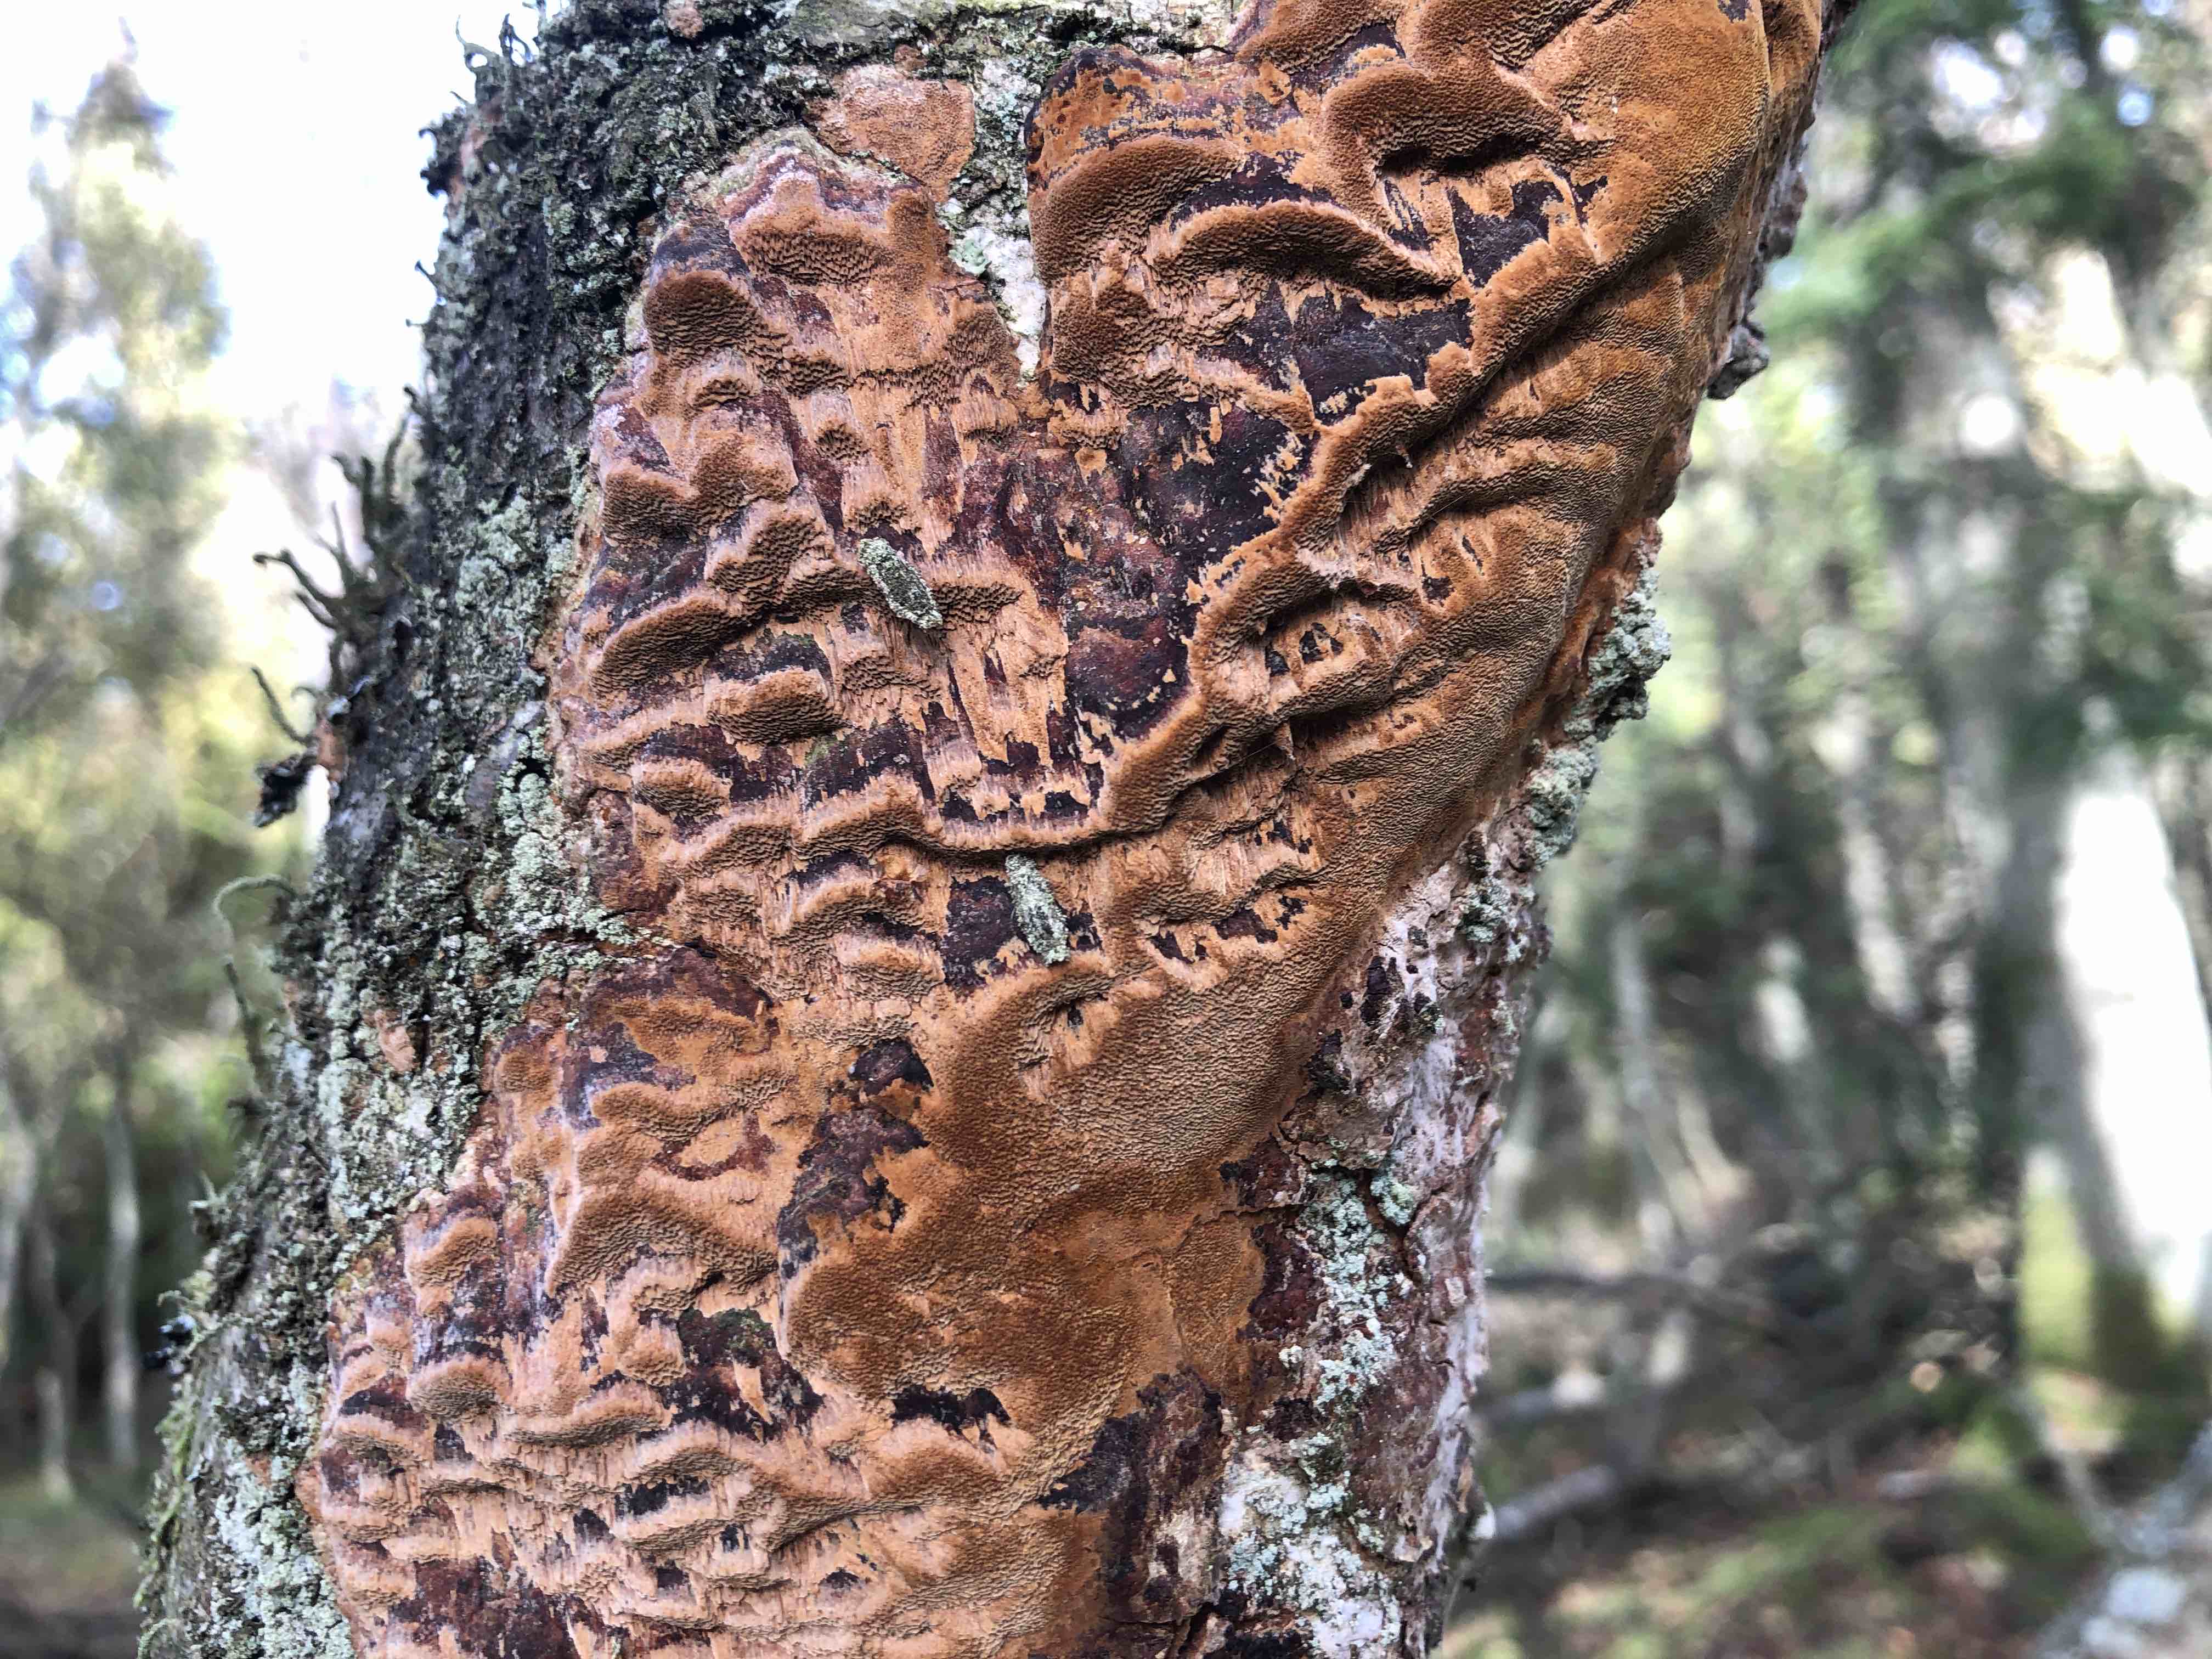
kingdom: Fungi
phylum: Basidiomycota
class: Agaricomycetes
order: Hymenochaetales
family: Hymenochaetaceae
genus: Fuscoporia
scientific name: Fuscoporia ferrea
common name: skorpe-ildporesvamp
